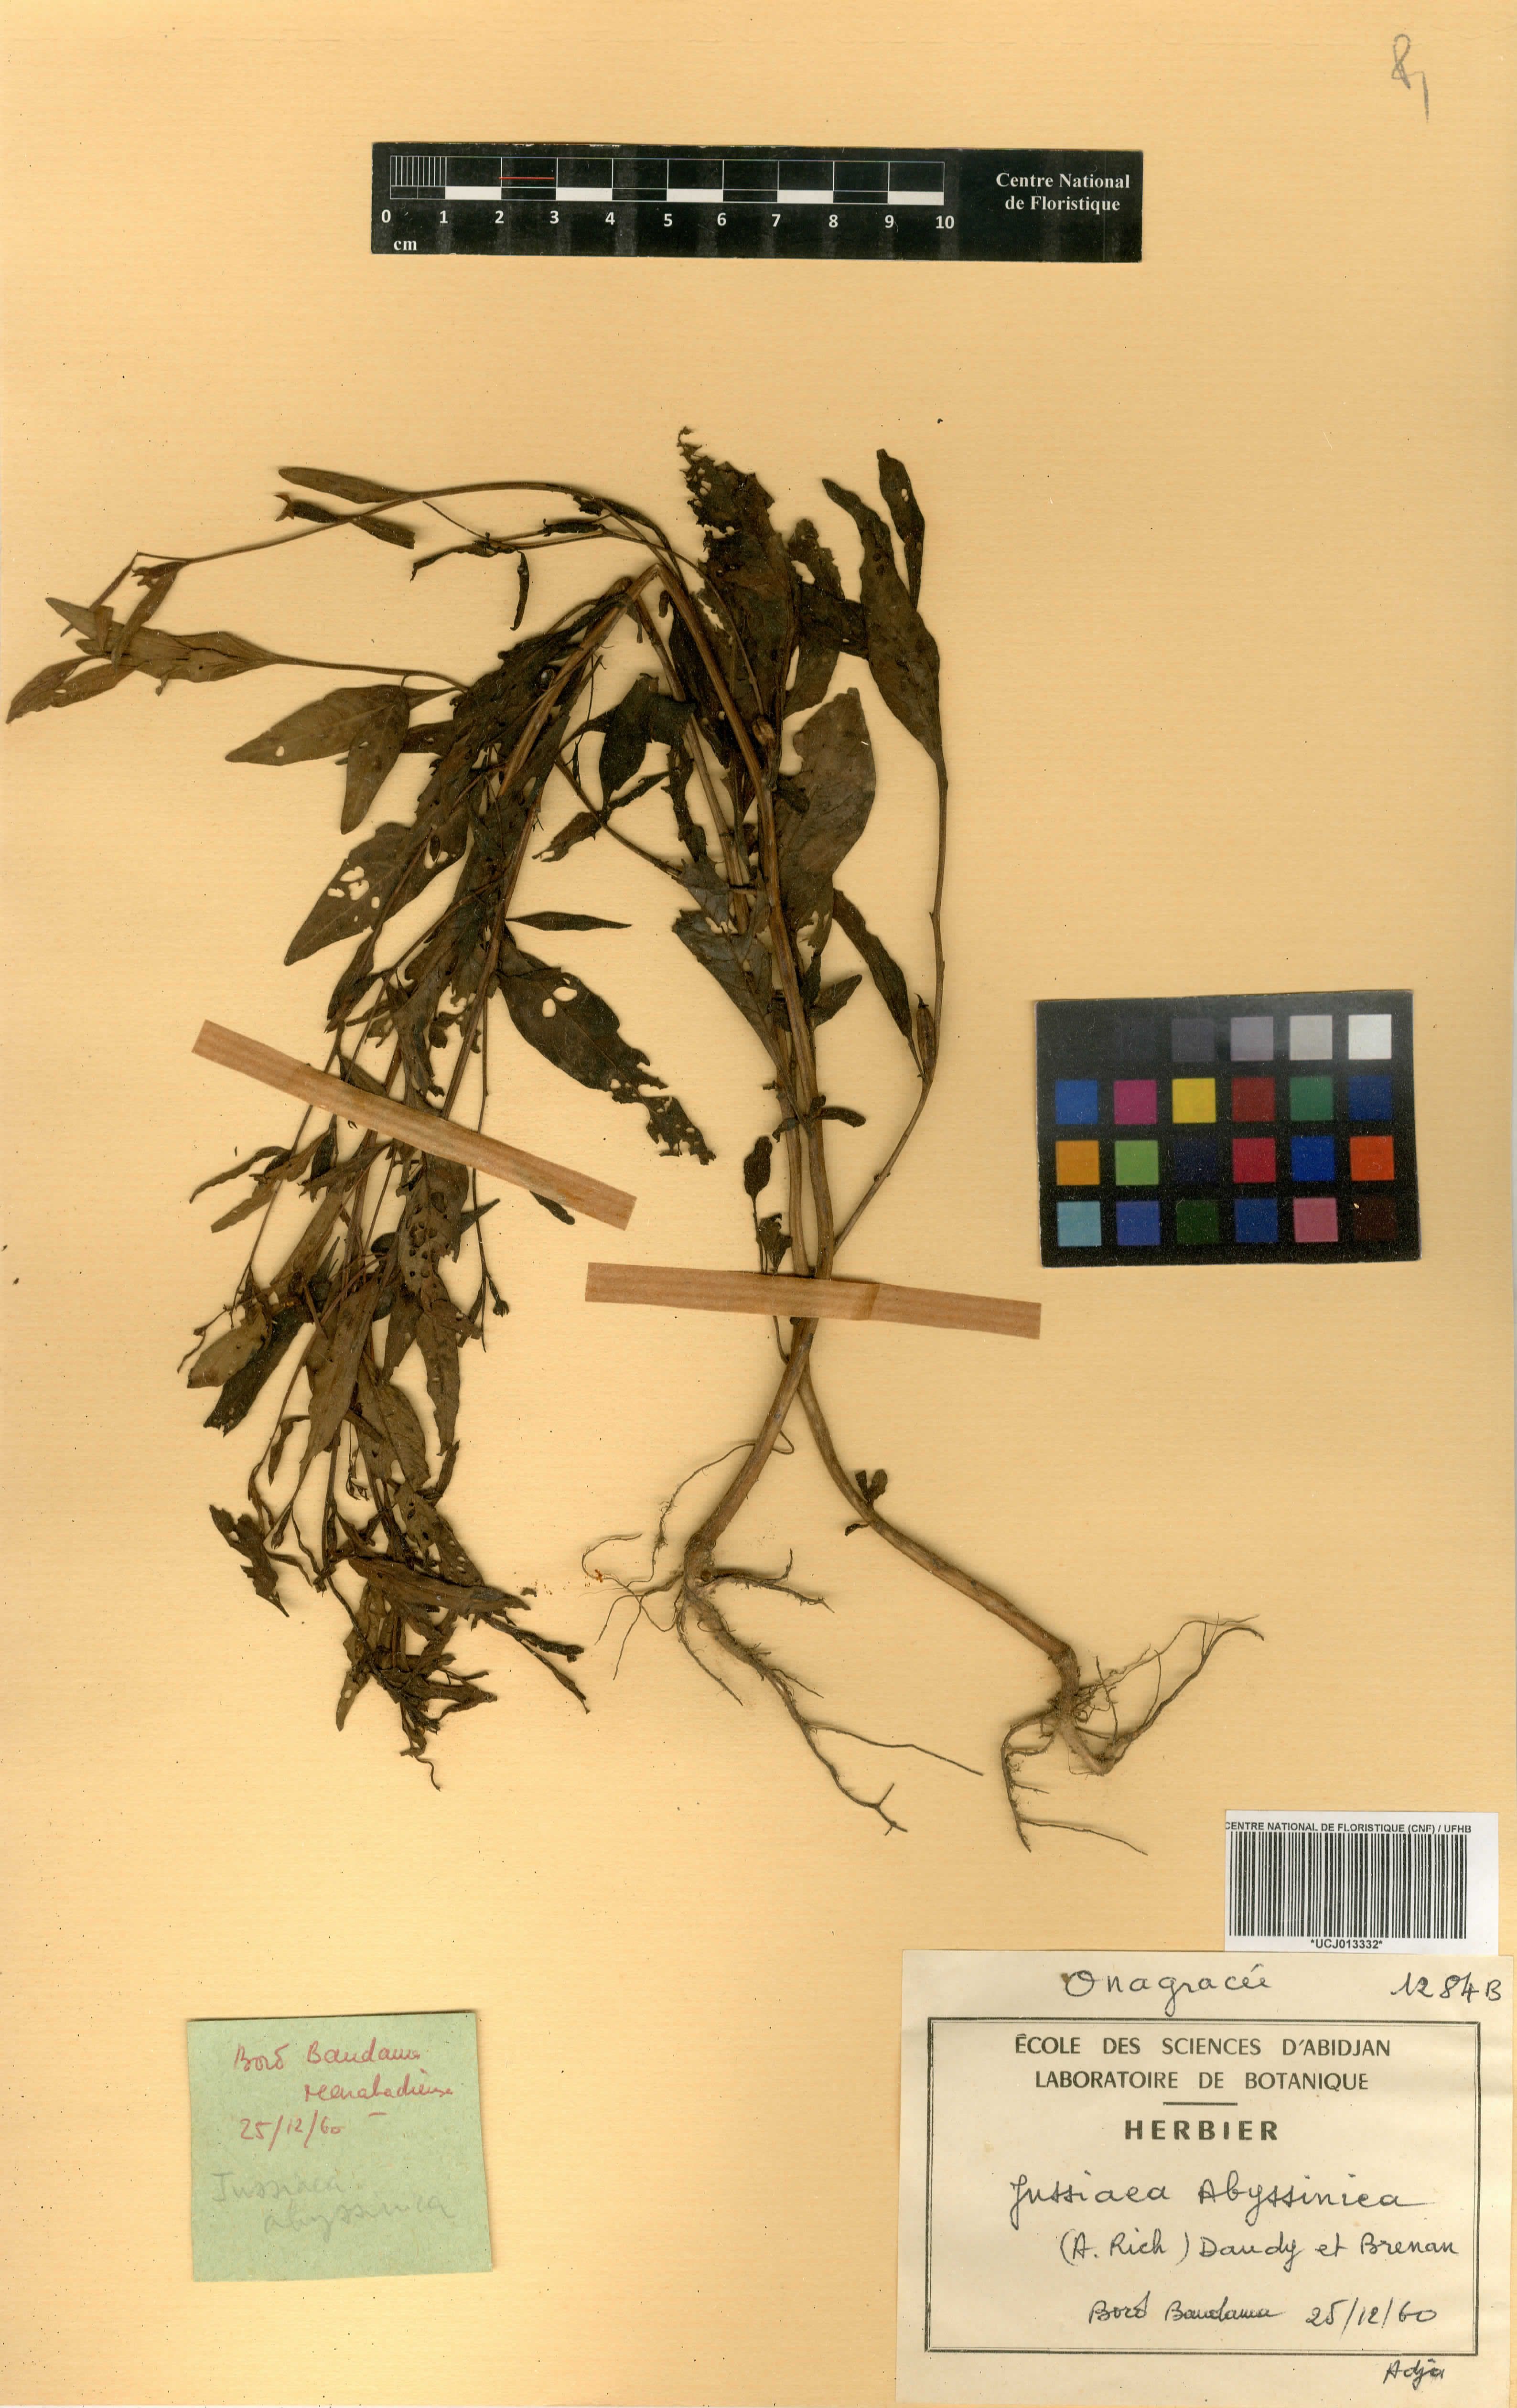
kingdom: Plantae
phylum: Tracheophyta
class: Magnoliopsida
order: Myrtales
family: Onagraceae
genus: Ludwigia
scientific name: Ludwigia abyssinica
